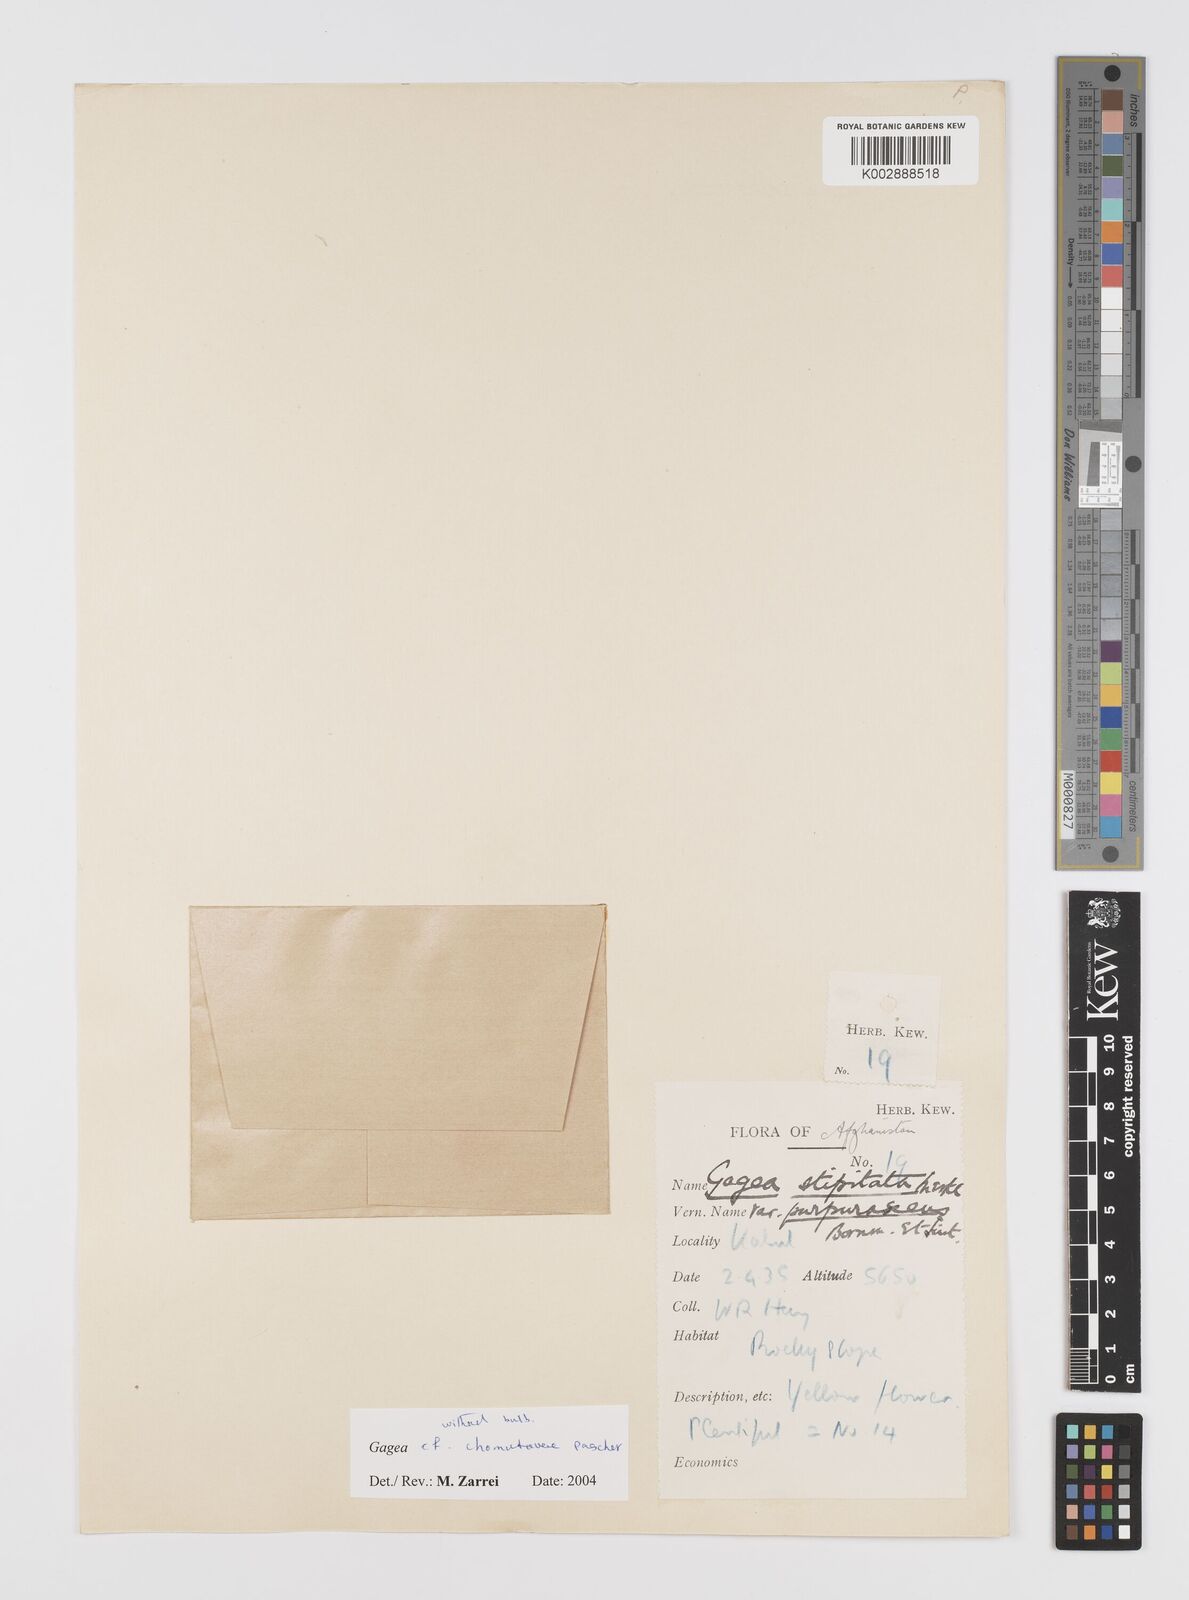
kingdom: Plantae
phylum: Tracheophyta
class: Liliopsida
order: Liliales
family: Liliaceae
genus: Gagea
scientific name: Gagea chomutovae
